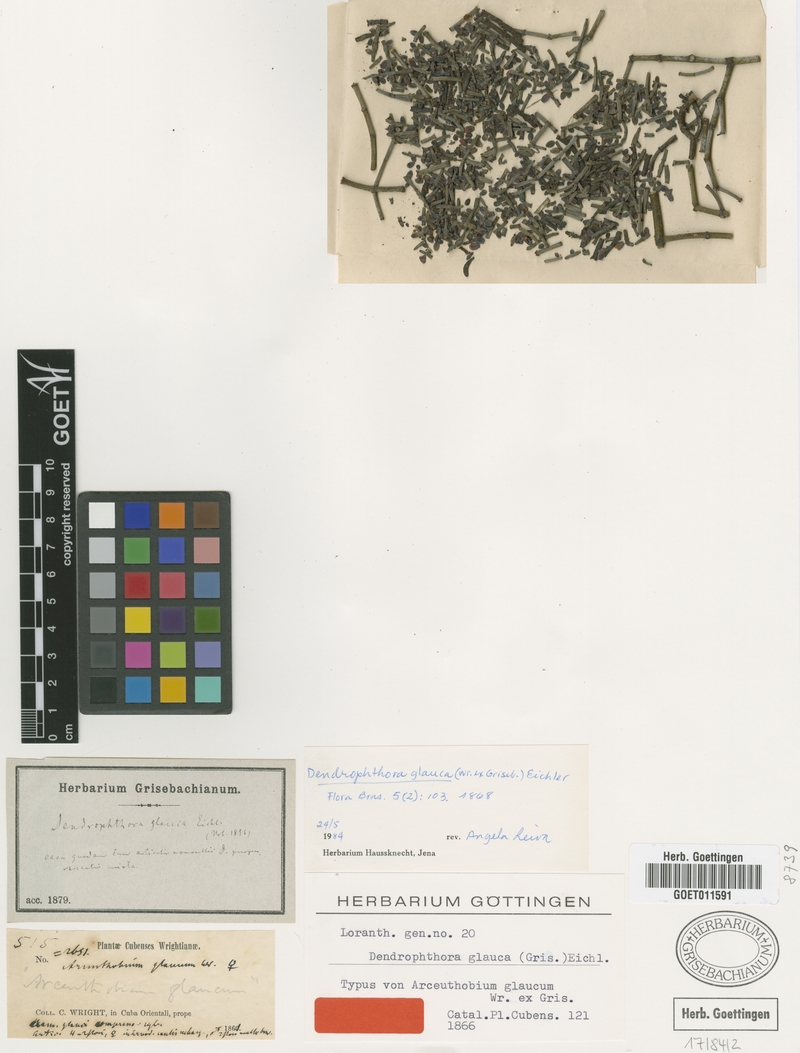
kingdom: Plantae
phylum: Tracheophyta
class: Magnoliopsida
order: Santalales
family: Viscaceae
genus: Dendrophthora
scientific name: Dendrophthora glauca
